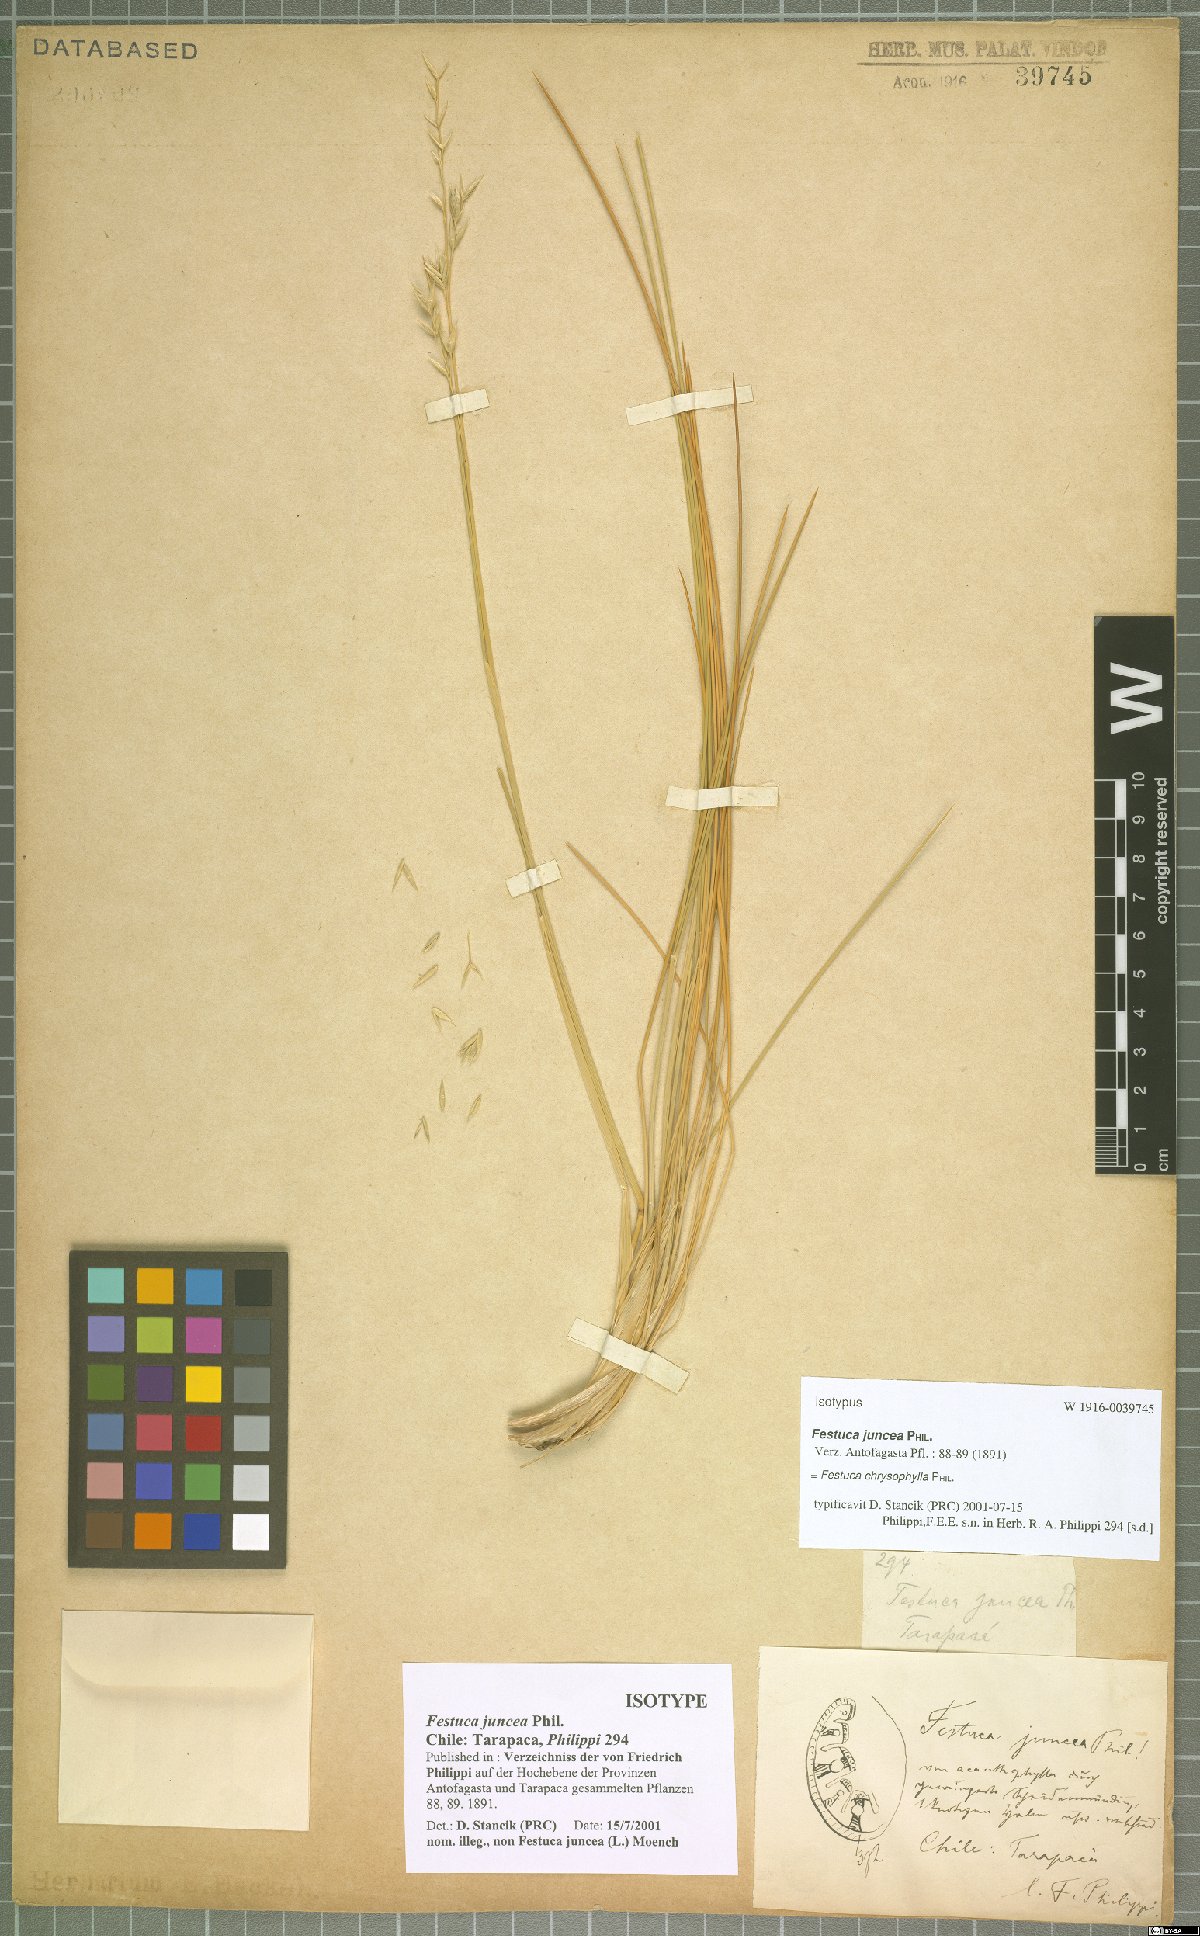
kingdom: Plantae
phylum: Tracheophyta
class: Liliopsida
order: Poales
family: Poaceae
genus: Festuca
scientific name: Festuca chrysophylla
